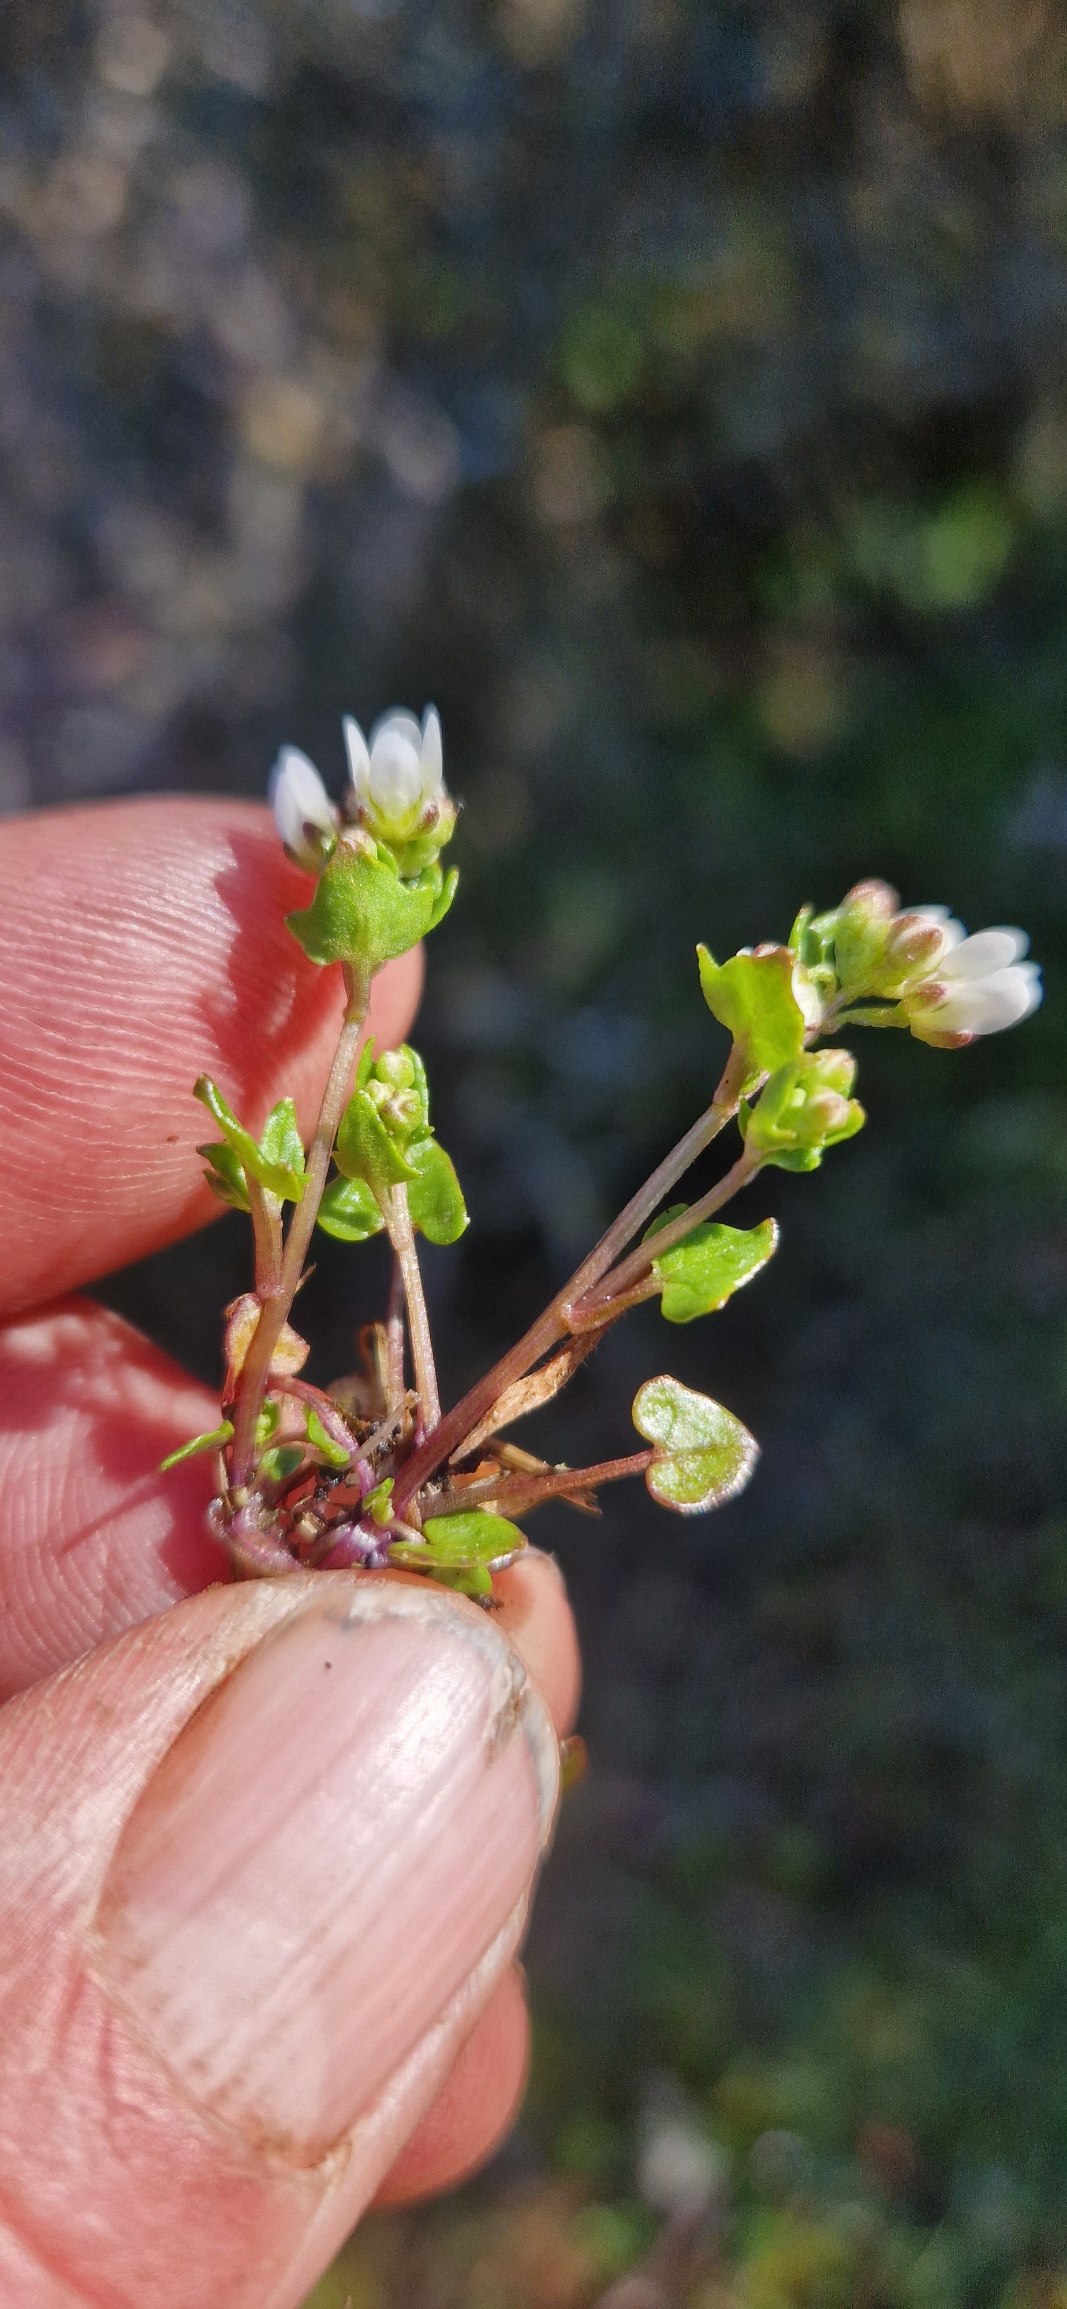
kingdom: Plantae
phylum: Tracheophyta
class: Magnoliopsida
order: Brassicales
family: Brassicaceae
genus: Cochlearia
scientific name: Cochlearia danica
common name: Dansk kokleare
